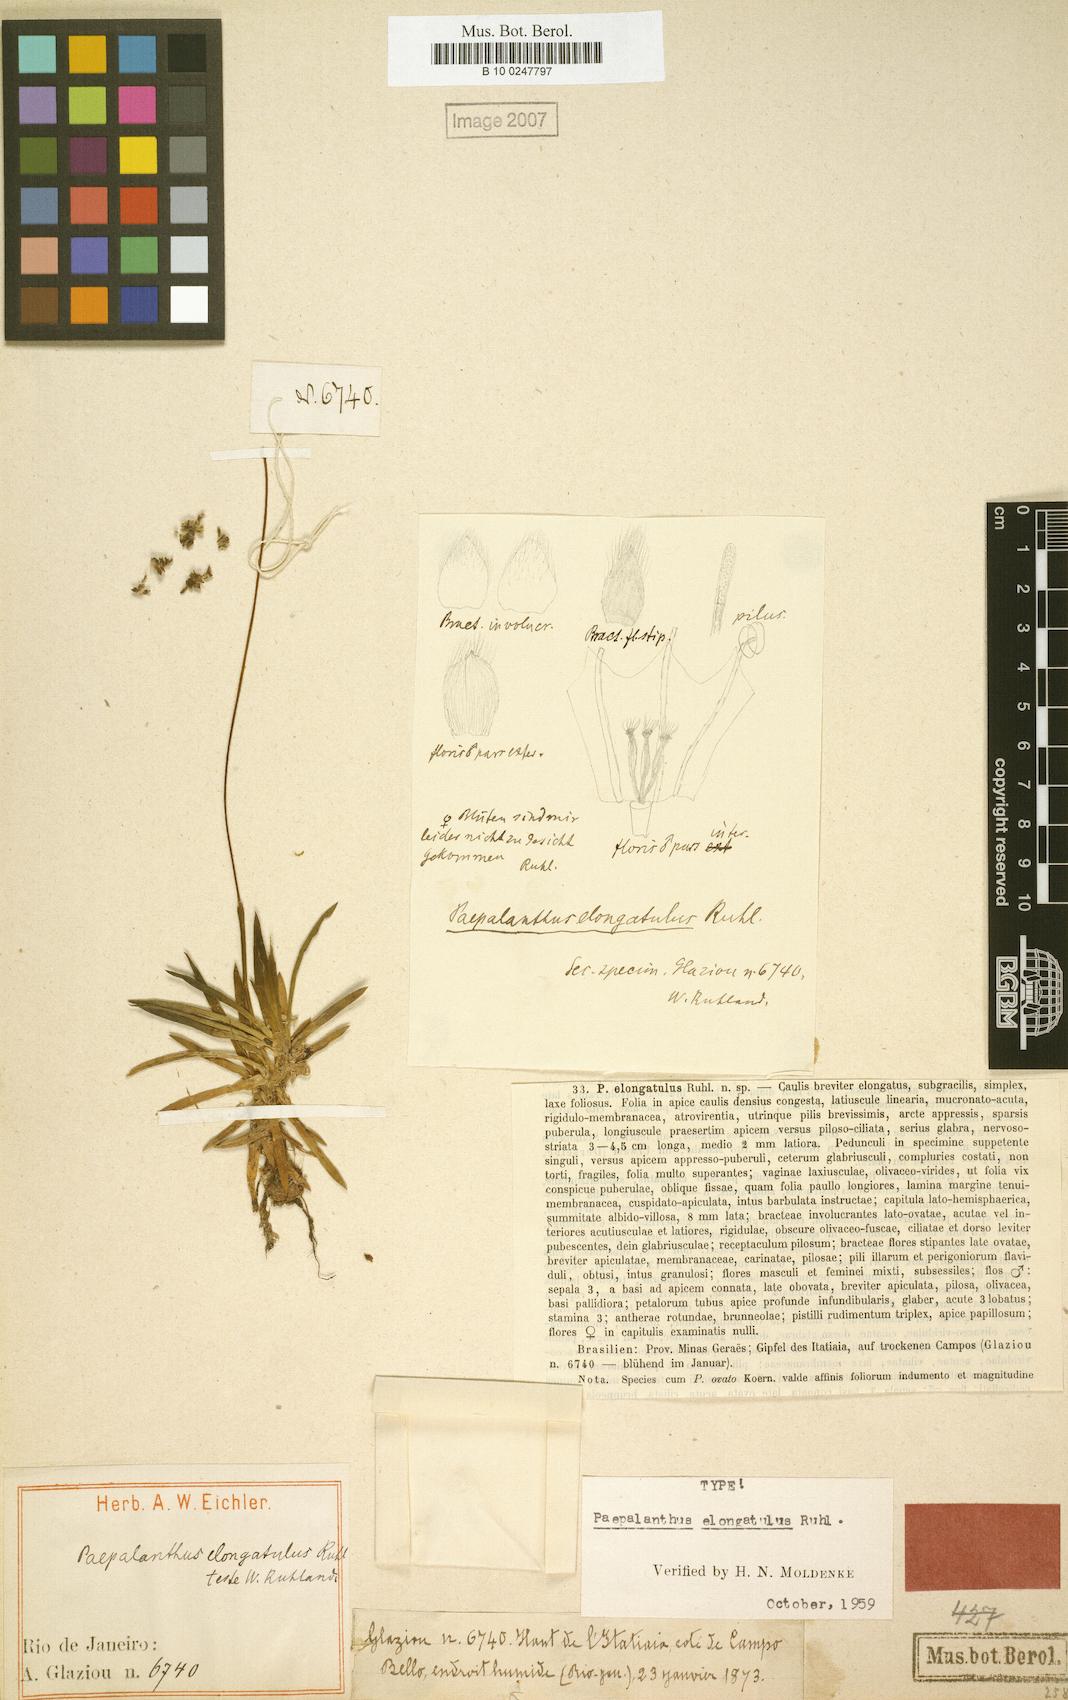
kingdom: Plantae
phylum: Tracheophyta
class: Liliopsida
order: Poales
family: Eriocaulaceae
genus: Paepalanthus
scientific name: Paepalanthus elongatulus
